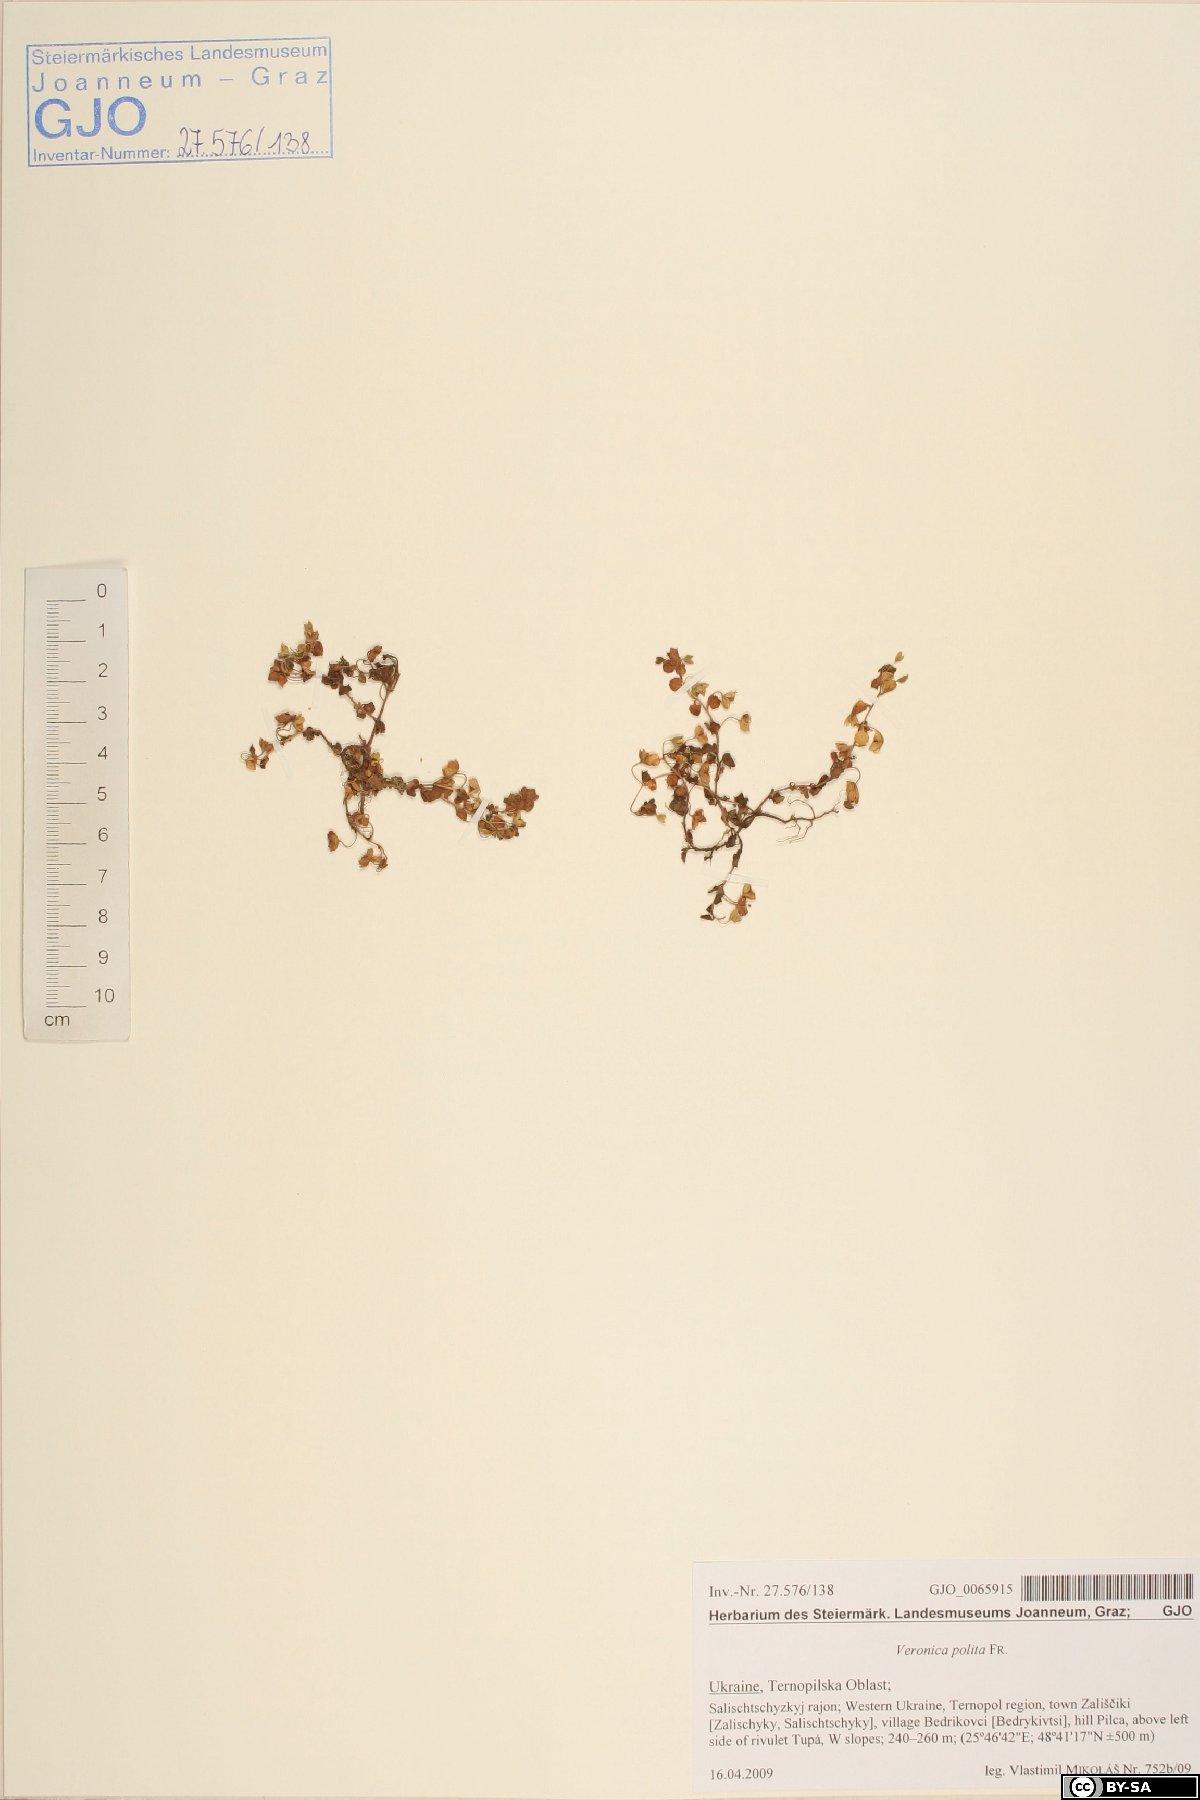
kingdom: Plantae
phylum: Tracheophyta
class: Magnoliopsida
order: Lamiales
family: Plantaginaceae
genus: Veronica
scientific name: Veronica polita
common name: Grey field-speedwell
